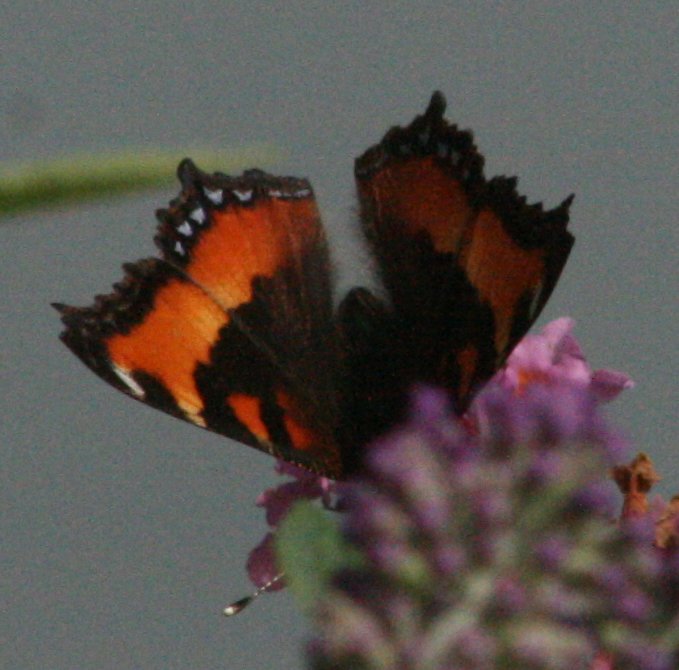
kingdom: Animalia
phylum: Arthropoda
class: Insecta
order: Lepidoptera
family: Nymphalidae
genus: Aglais
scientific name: Aglais milberti
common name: Milbert's Tortoiseshell
